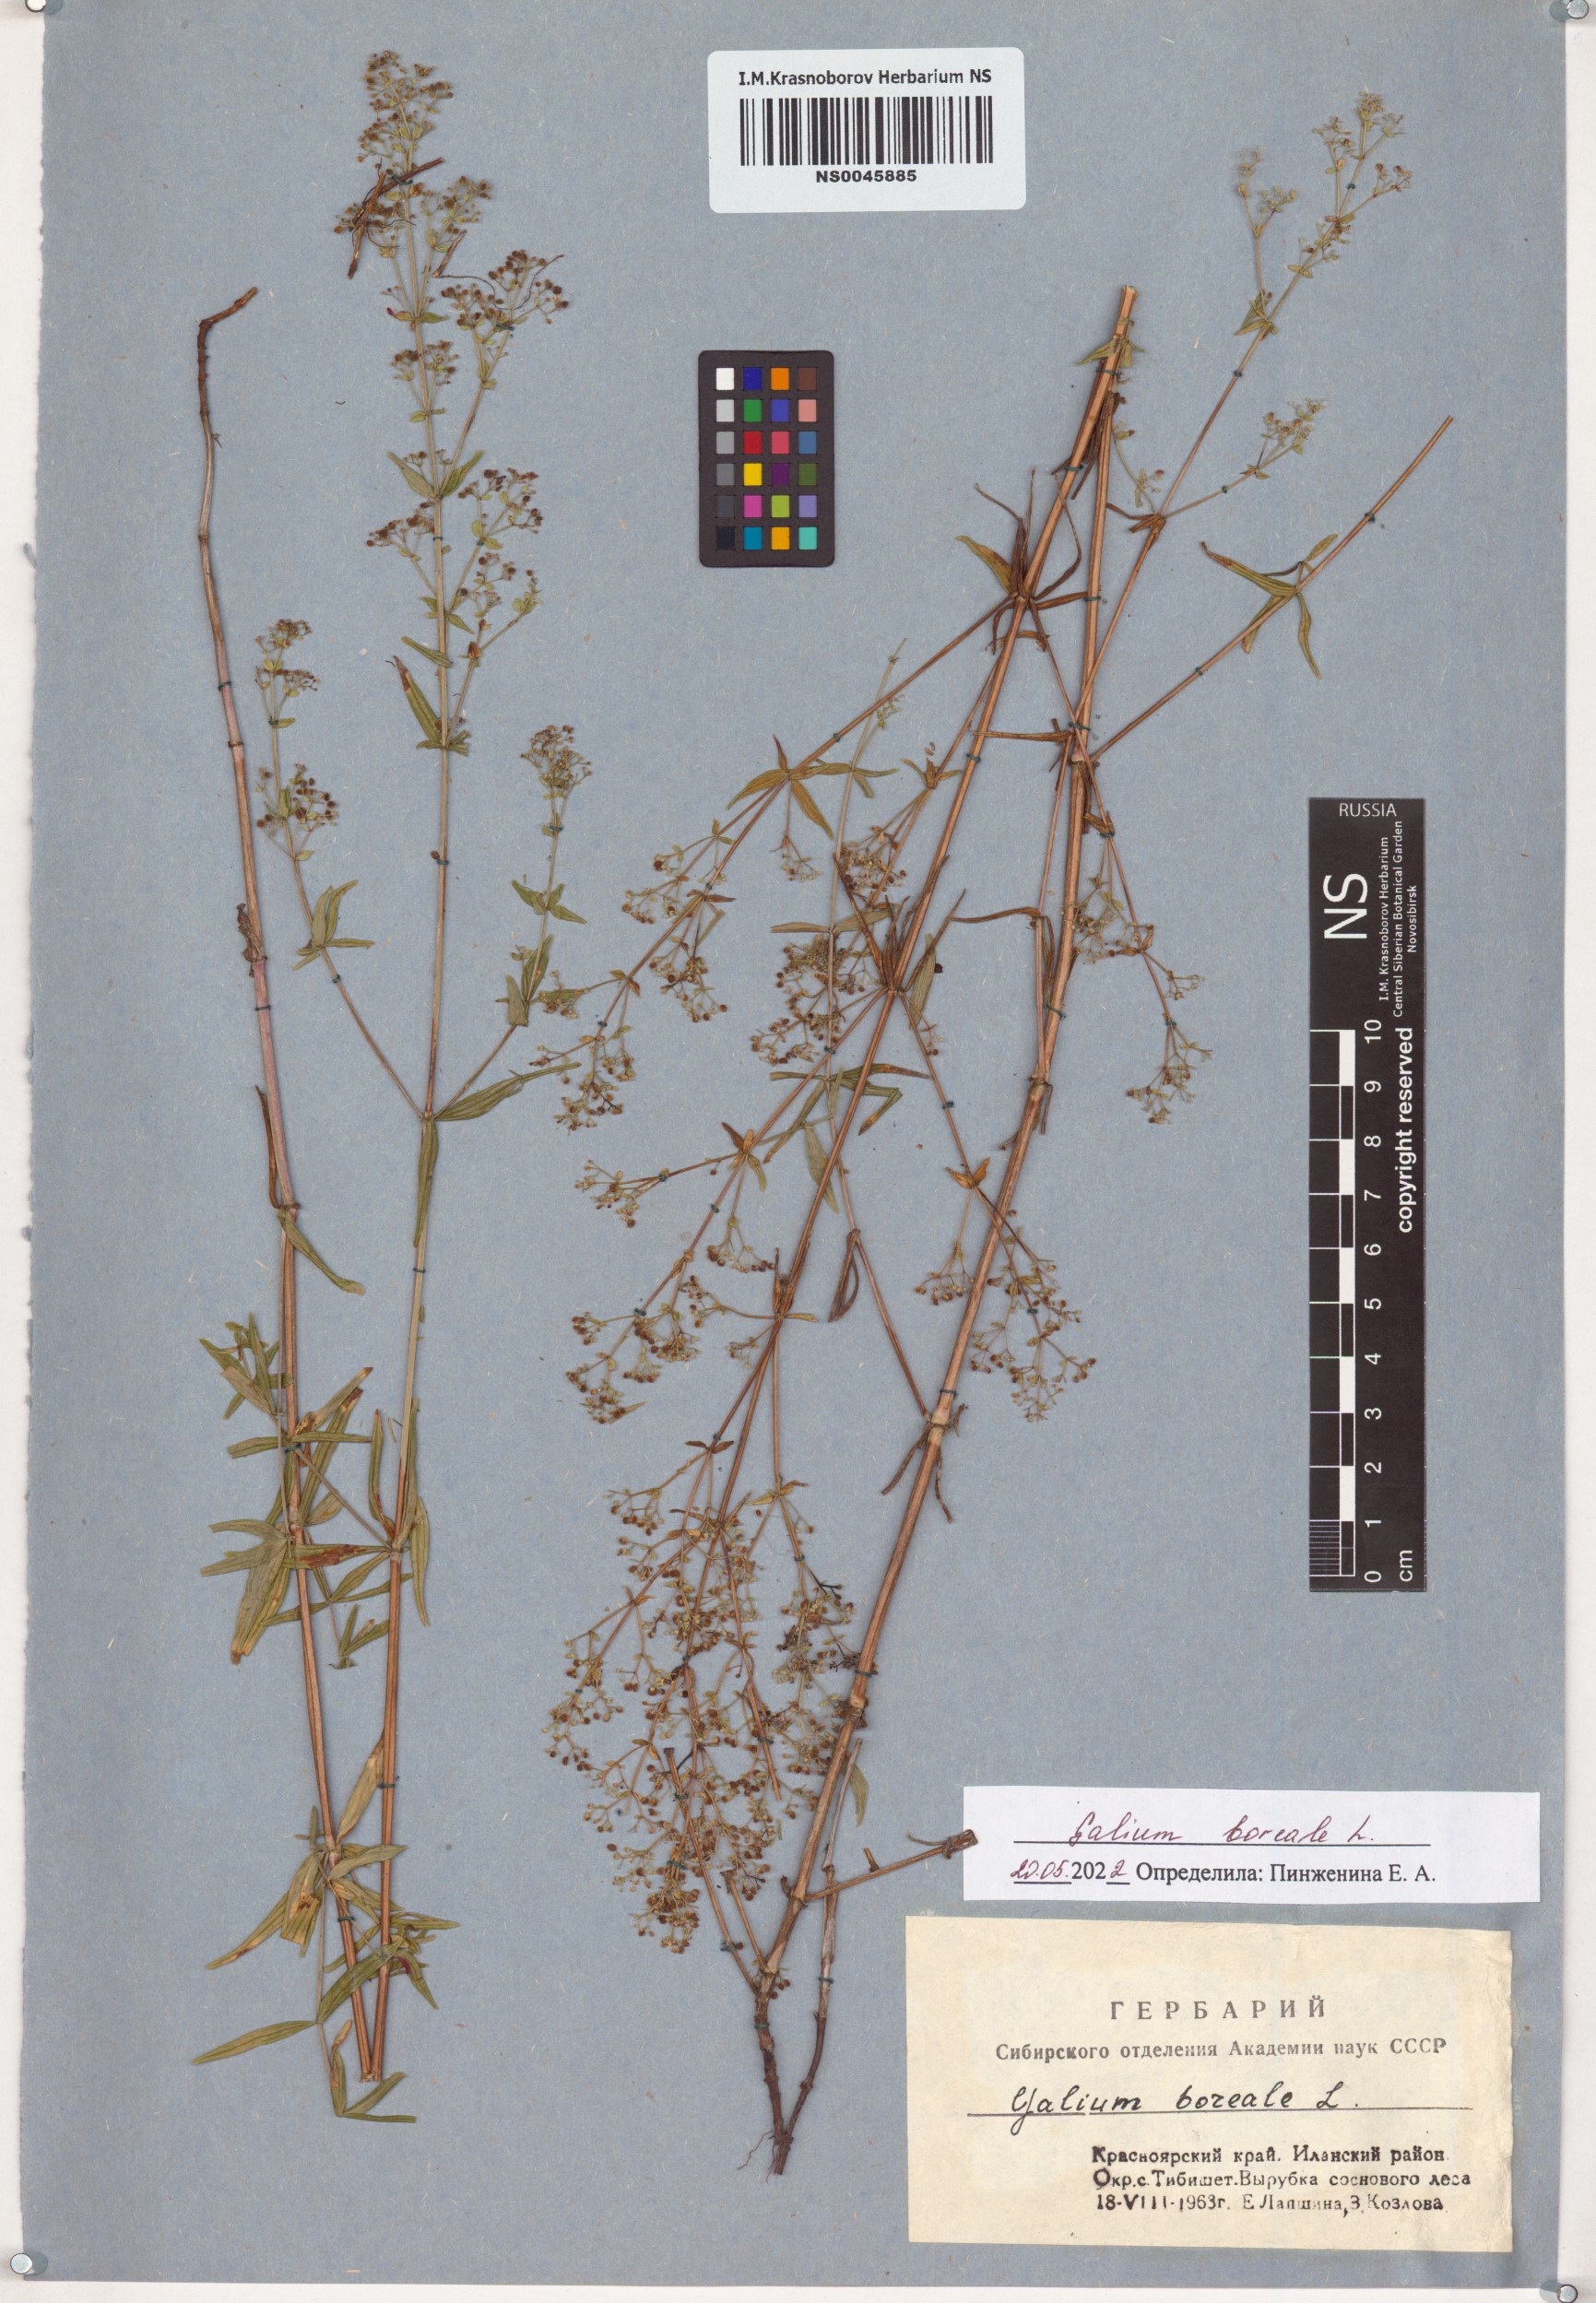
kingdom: Plantae
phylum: Tracheophyta
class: Magnoliopsida
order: Gentianales
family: Rubiaceae
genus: Galium
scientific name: Galium boreale
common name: Northern bedstraw
